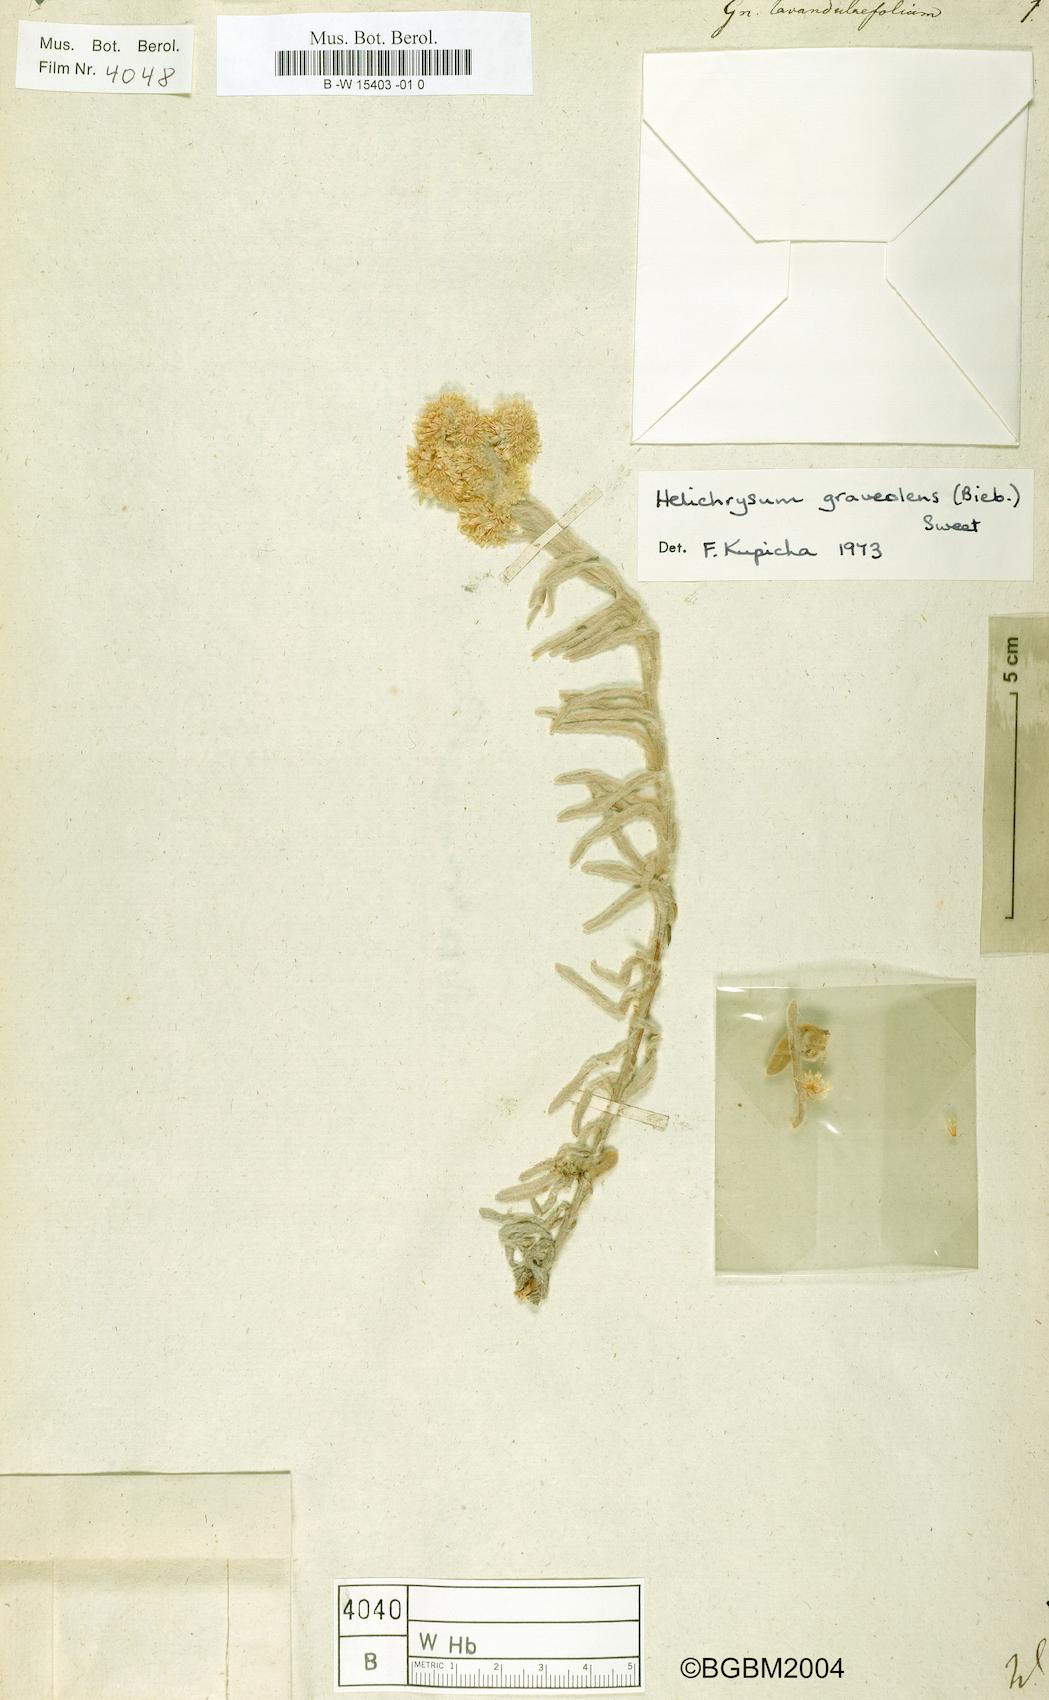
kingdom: Plantae
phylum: Tracheophyta
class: Magnoliopsida
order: Asterales
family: Asteraceae
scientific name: Asteraceae
